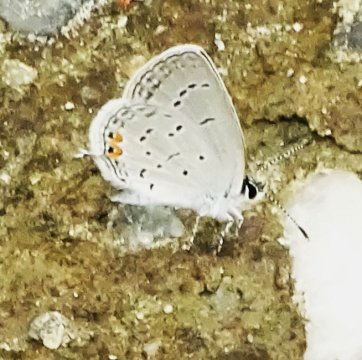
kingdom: Animalia
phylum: Arthropoda
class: Insecta
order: Lepidoptera
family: Lycaenidae
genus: Elkalyce
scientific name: Elkalyce comyntas
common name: Eastern Tailed-Blue
